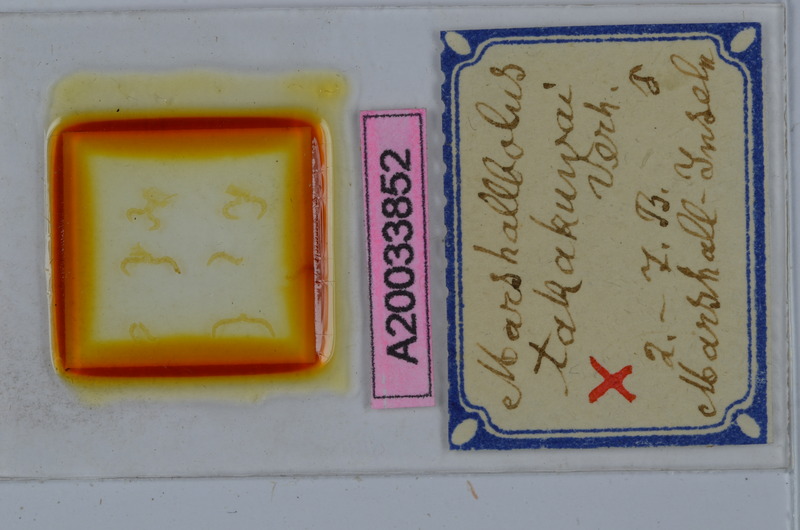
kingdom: Animalia
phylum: Arthropoda
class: Diplopoda
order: Spirobolida
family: Pachybolidae
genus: Trigoniulus
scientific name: Trigoniulus corallinus
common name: Millipede
